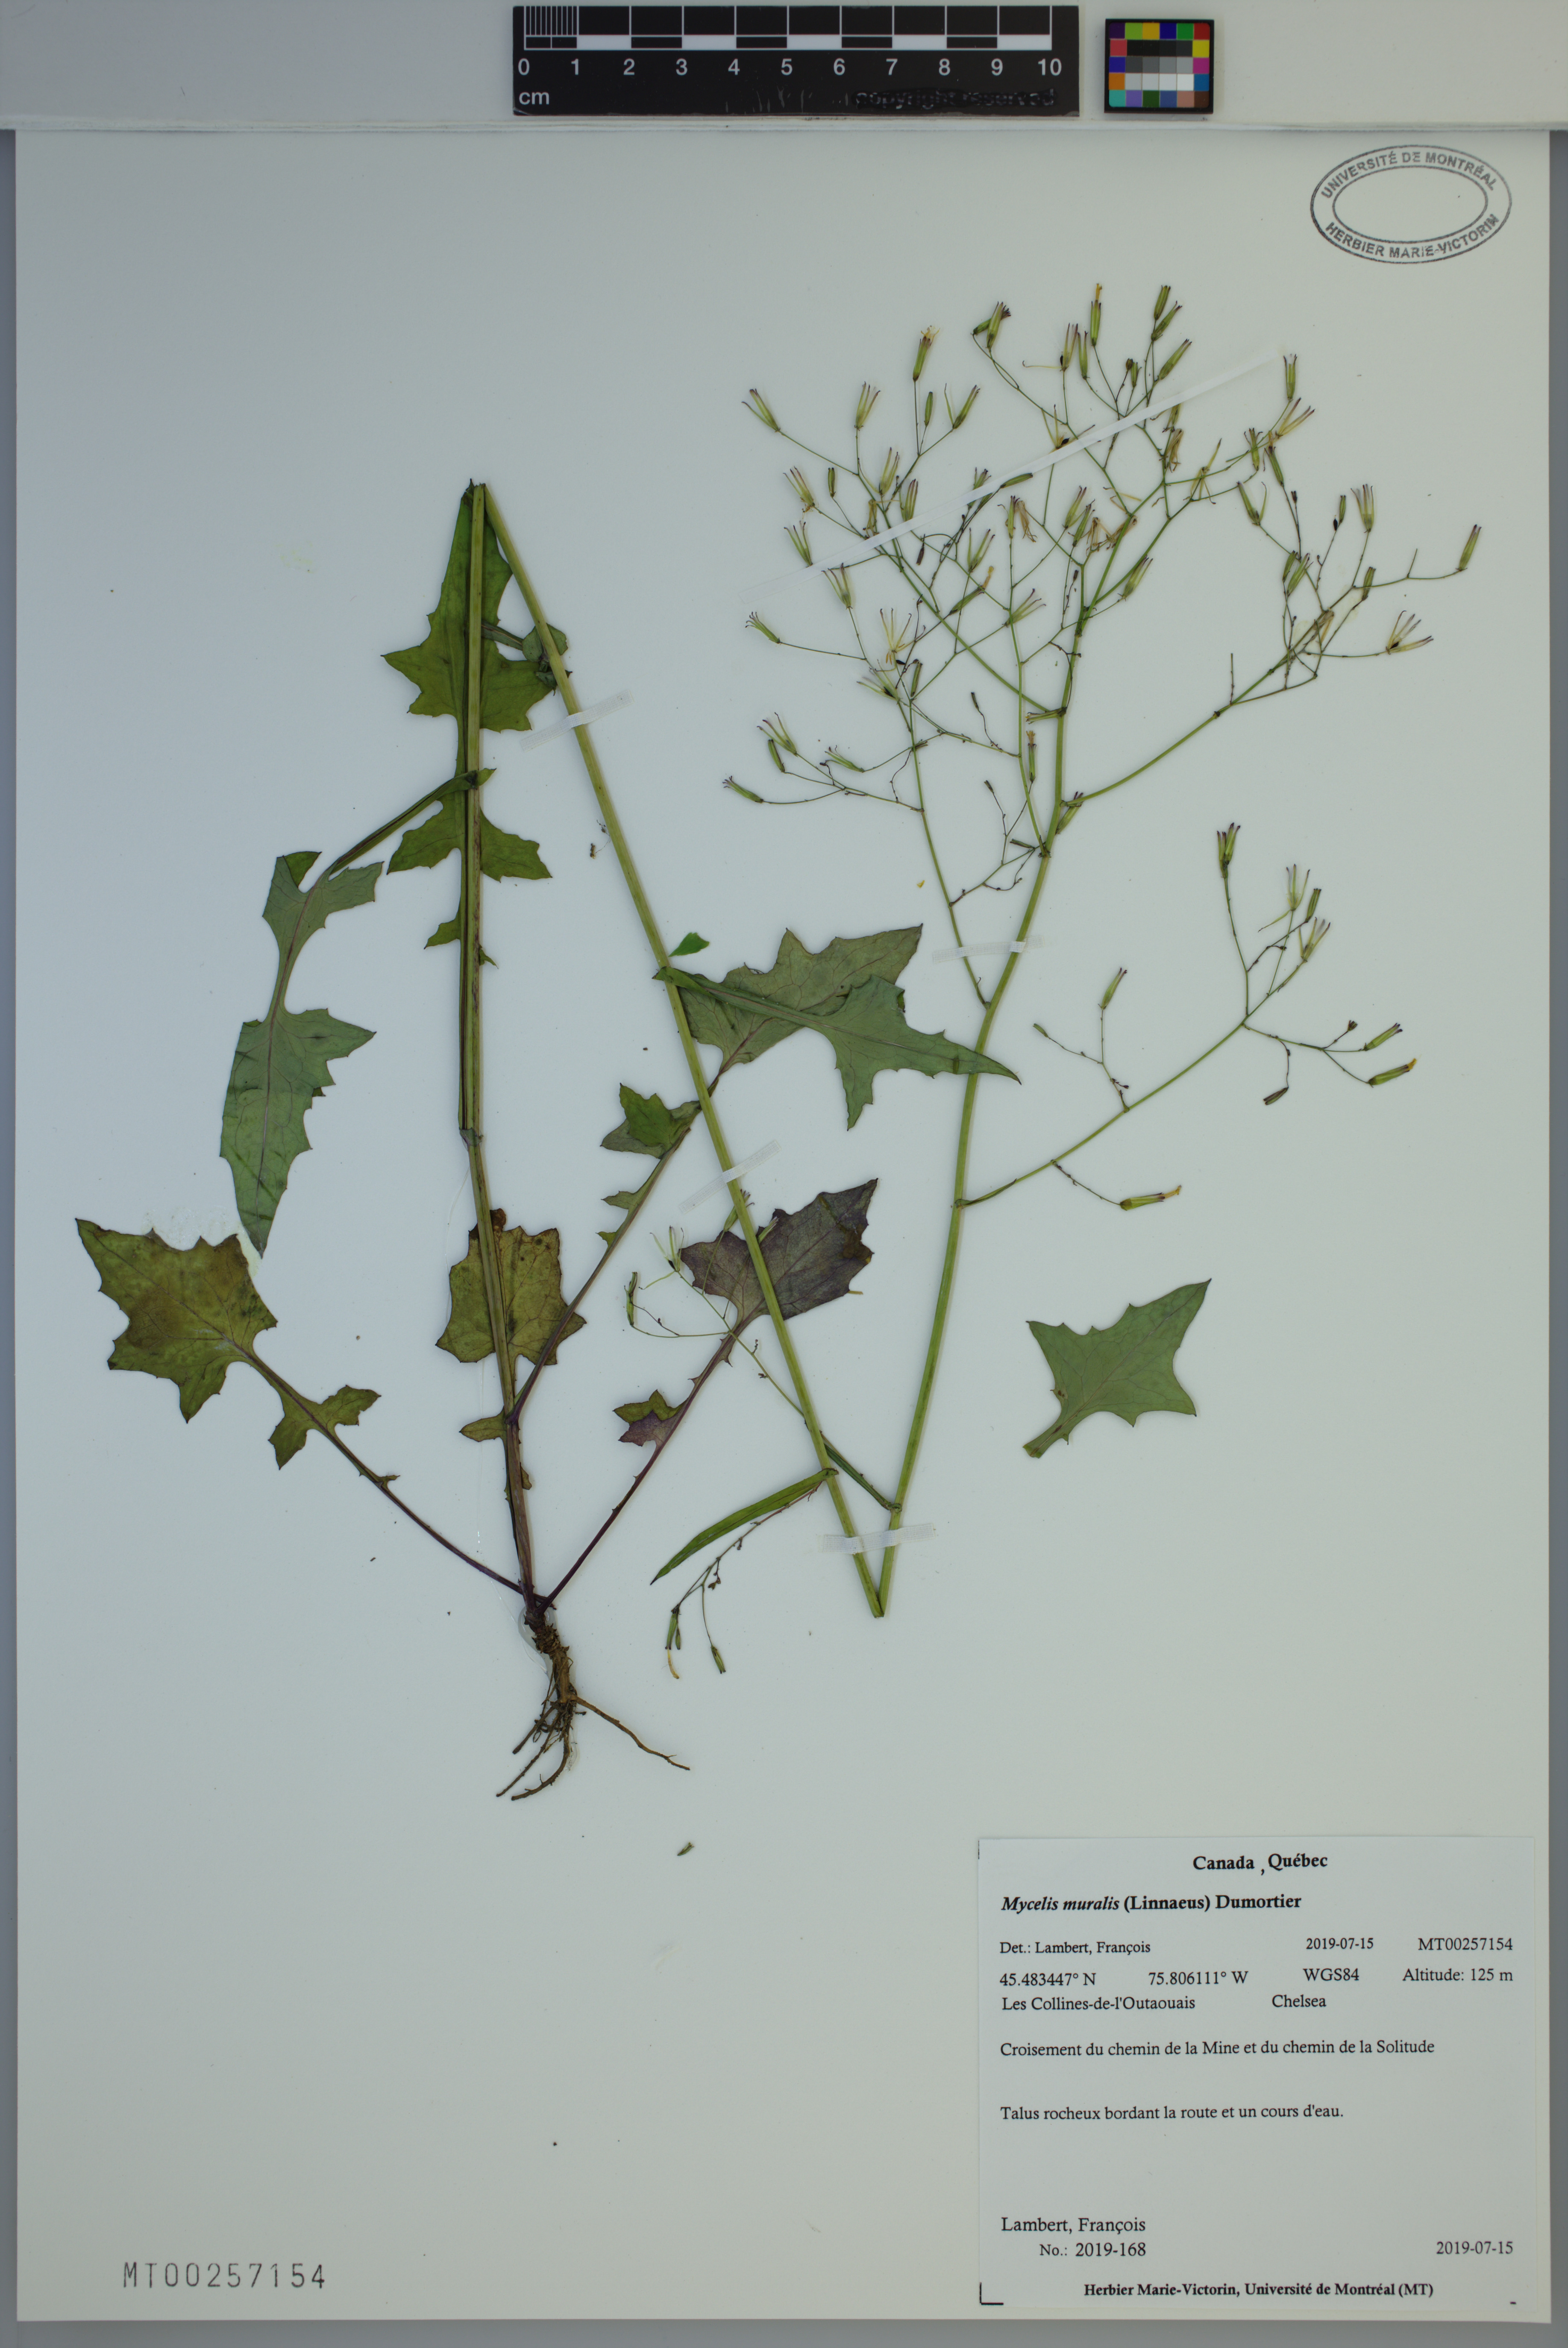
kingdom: Plantae
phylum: Tracheophyta
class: Magnoliopsida
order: Asterales
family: Asteraceae
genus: Mycelis
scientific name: Mycelis muralis
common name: Wall lettuce
